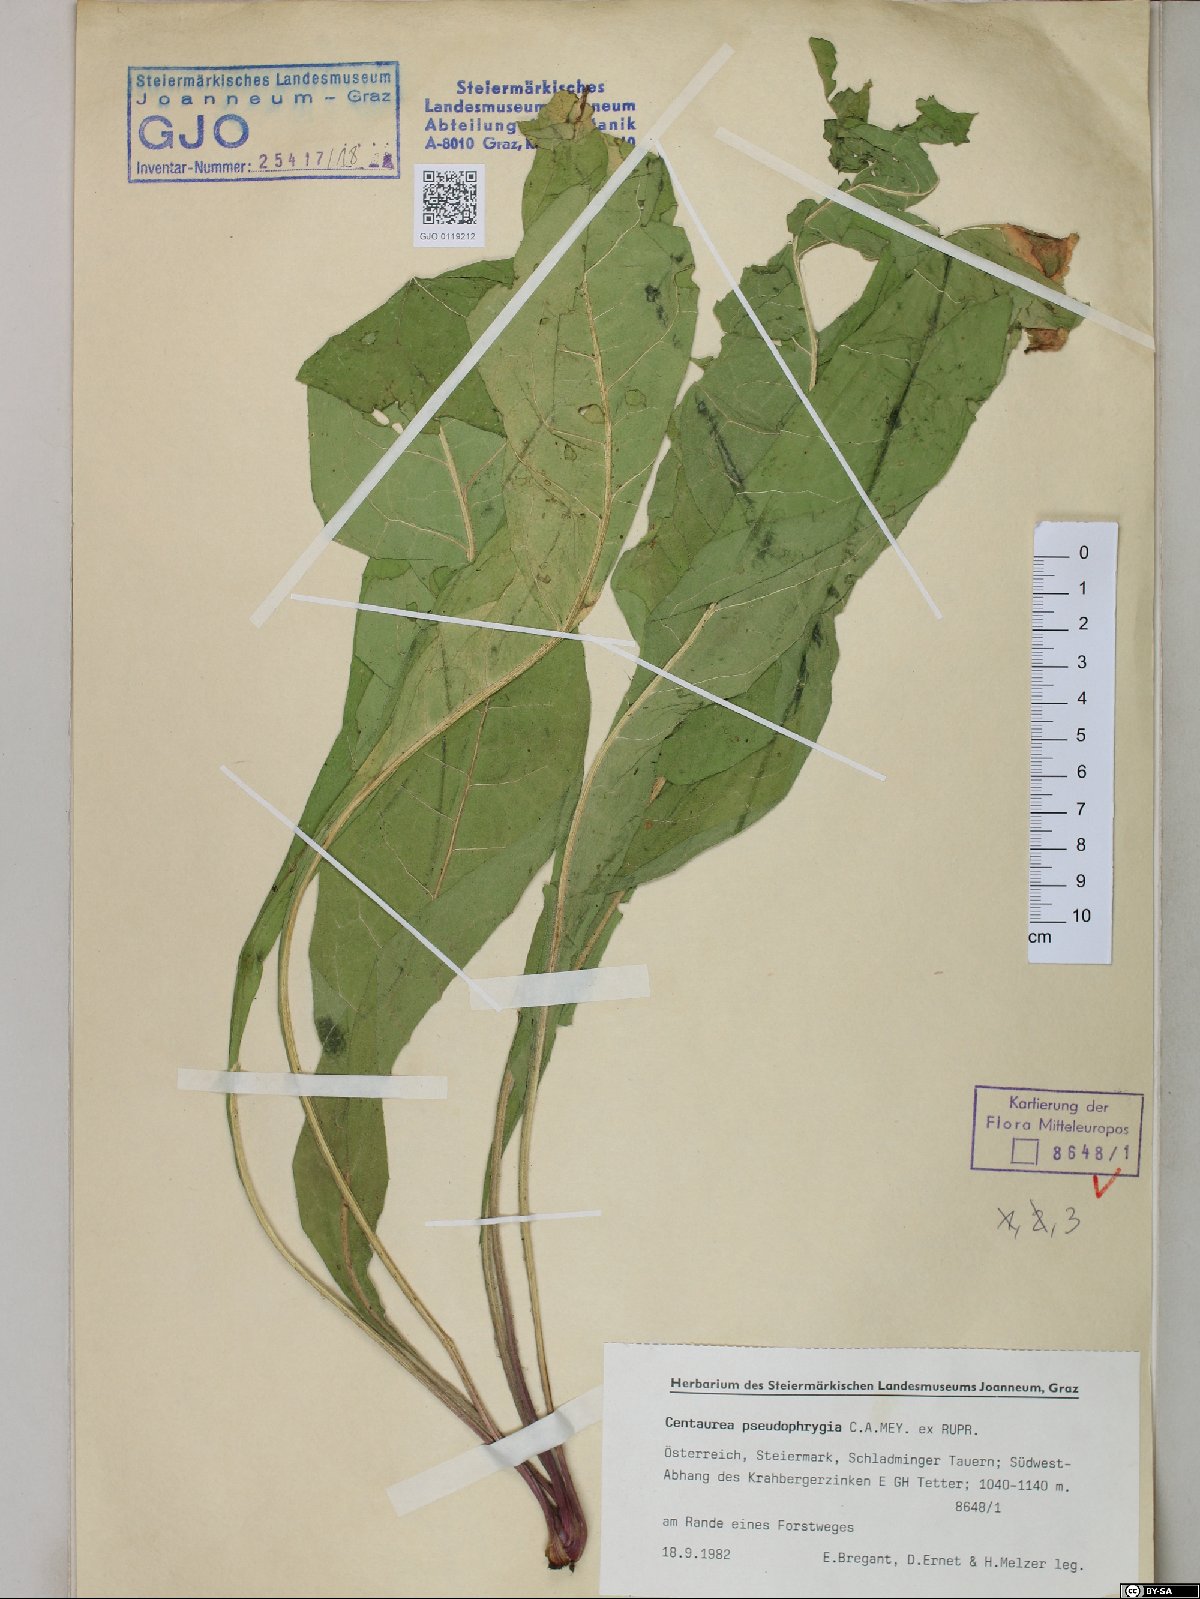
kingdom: Plantae
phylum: Tracheophyta
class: Magnoliopsida
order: Asterales
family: Asteraceae
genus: Centaurea
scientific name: Centaurea pseudophrygia
